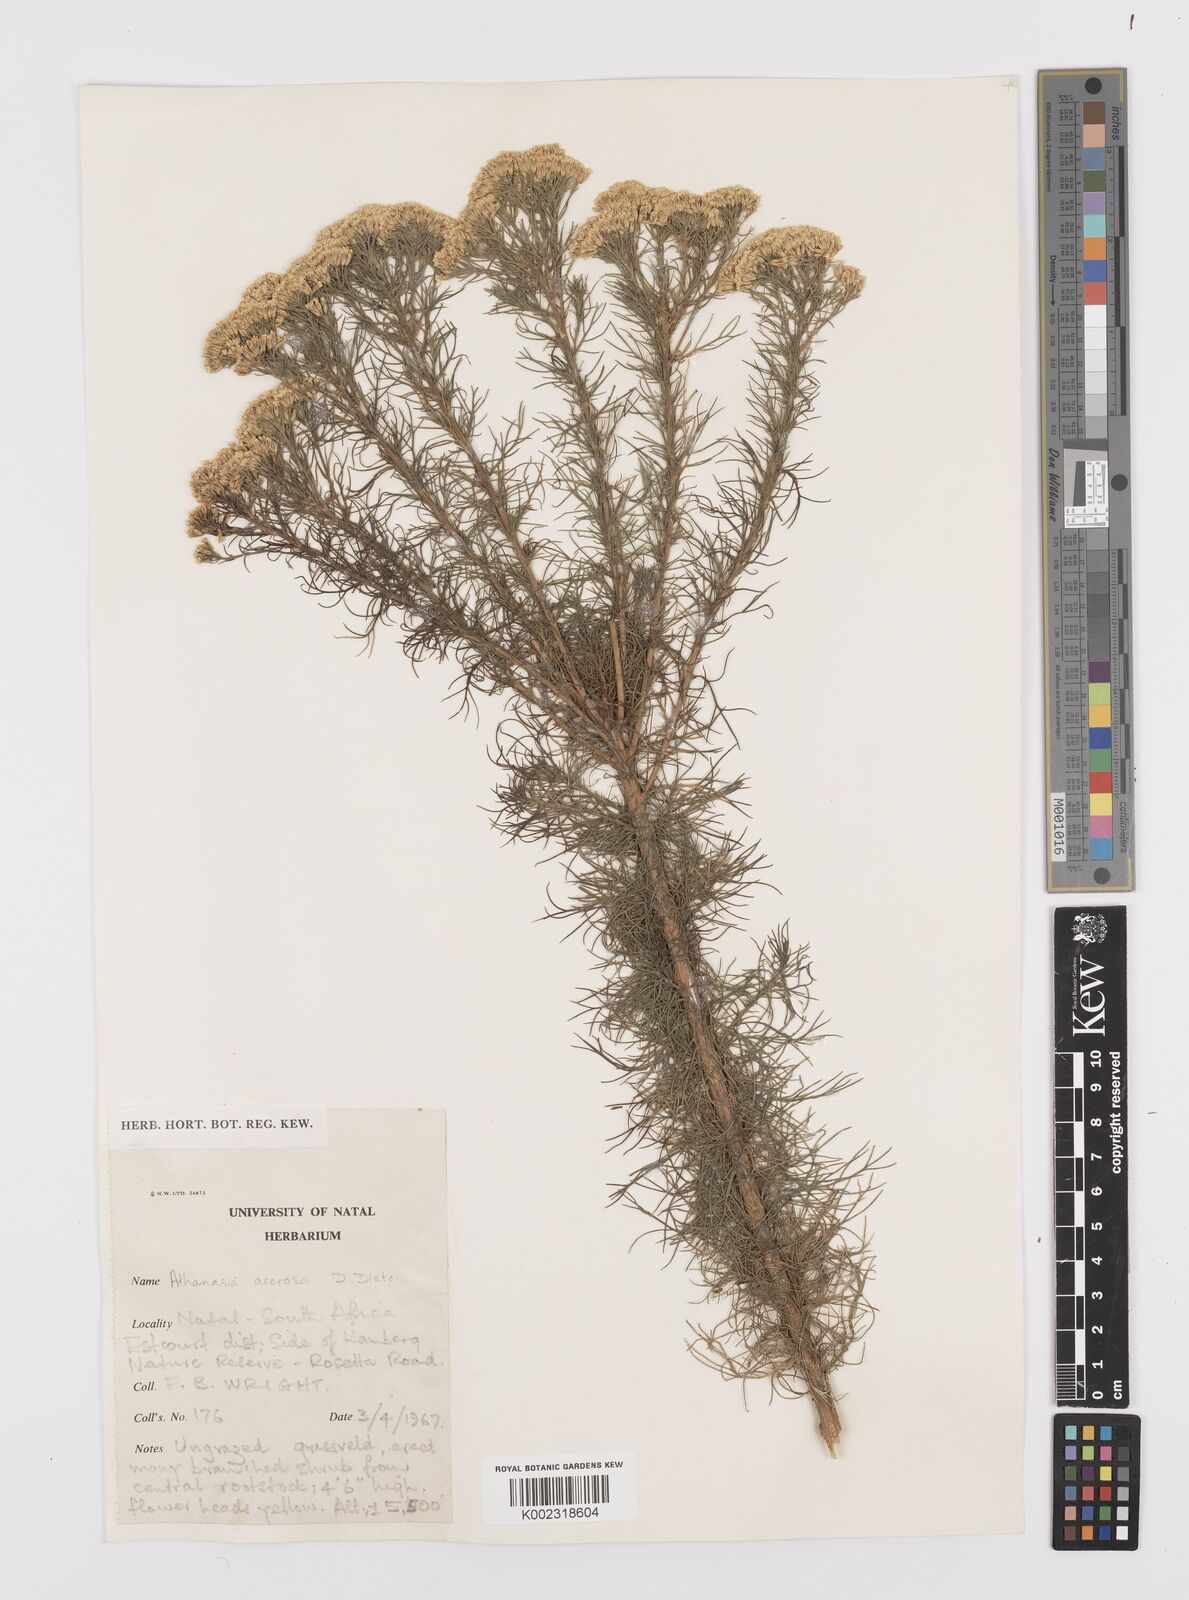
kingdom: Plantae
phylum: Tracheophyta
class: Magnoliopsida
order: Asterales
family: Asteraceae
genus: Phymaspermum
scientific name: Phymaspermum acerosum
